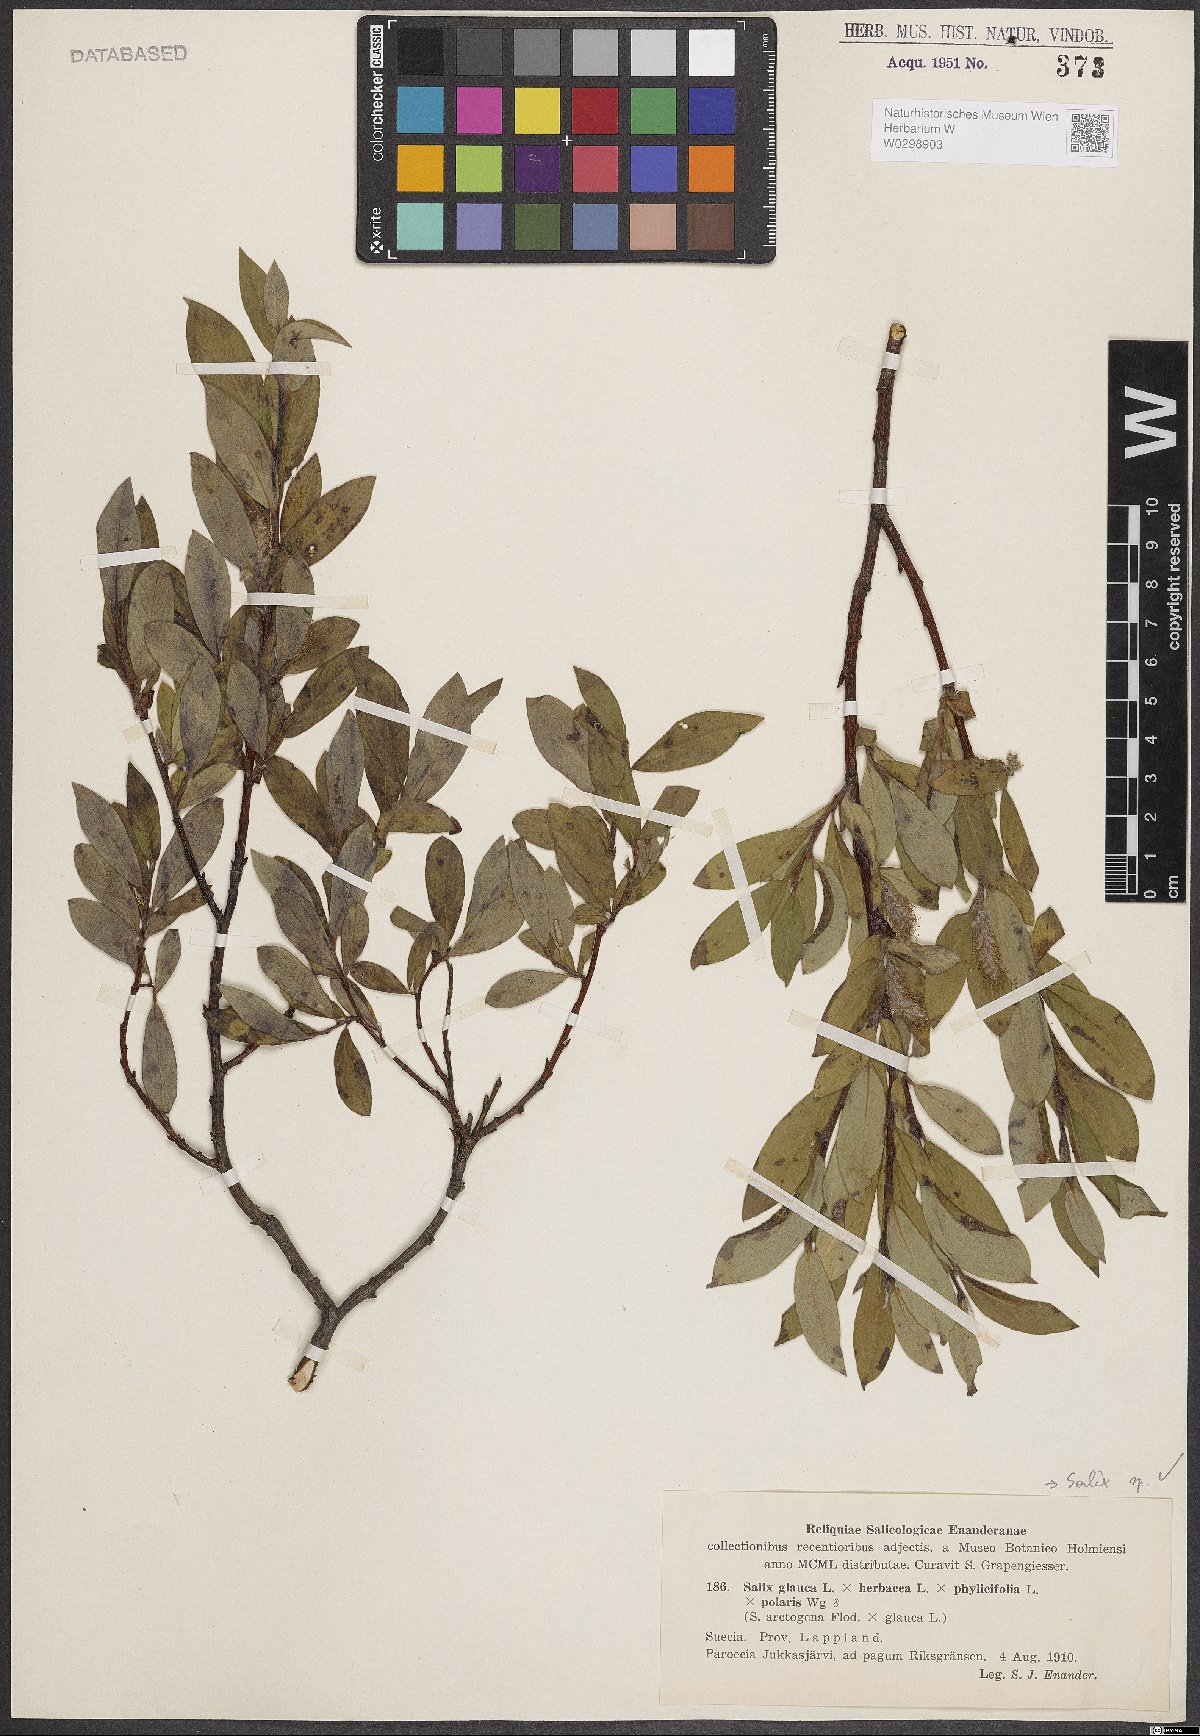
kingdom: Plantae
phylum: Tracheophyta
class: Magnoliopsida
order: Malpighiales
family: Salicaceae
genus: Salix
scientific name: Salix
